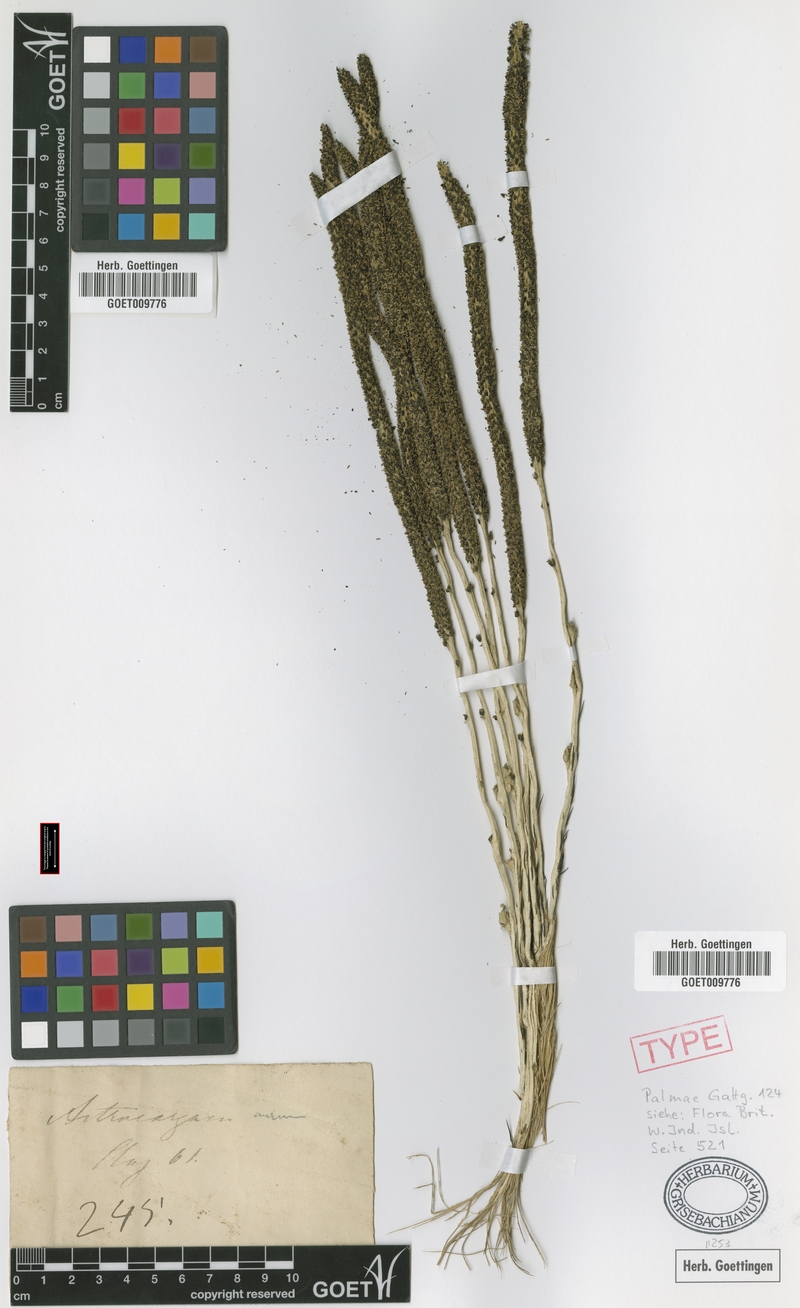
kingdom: Plantae
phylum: Tracheophyta
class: Liliopsida
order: Arecales
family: Arecaceae
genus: Astrocaryum
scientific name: Astrocaryum aculeatum
